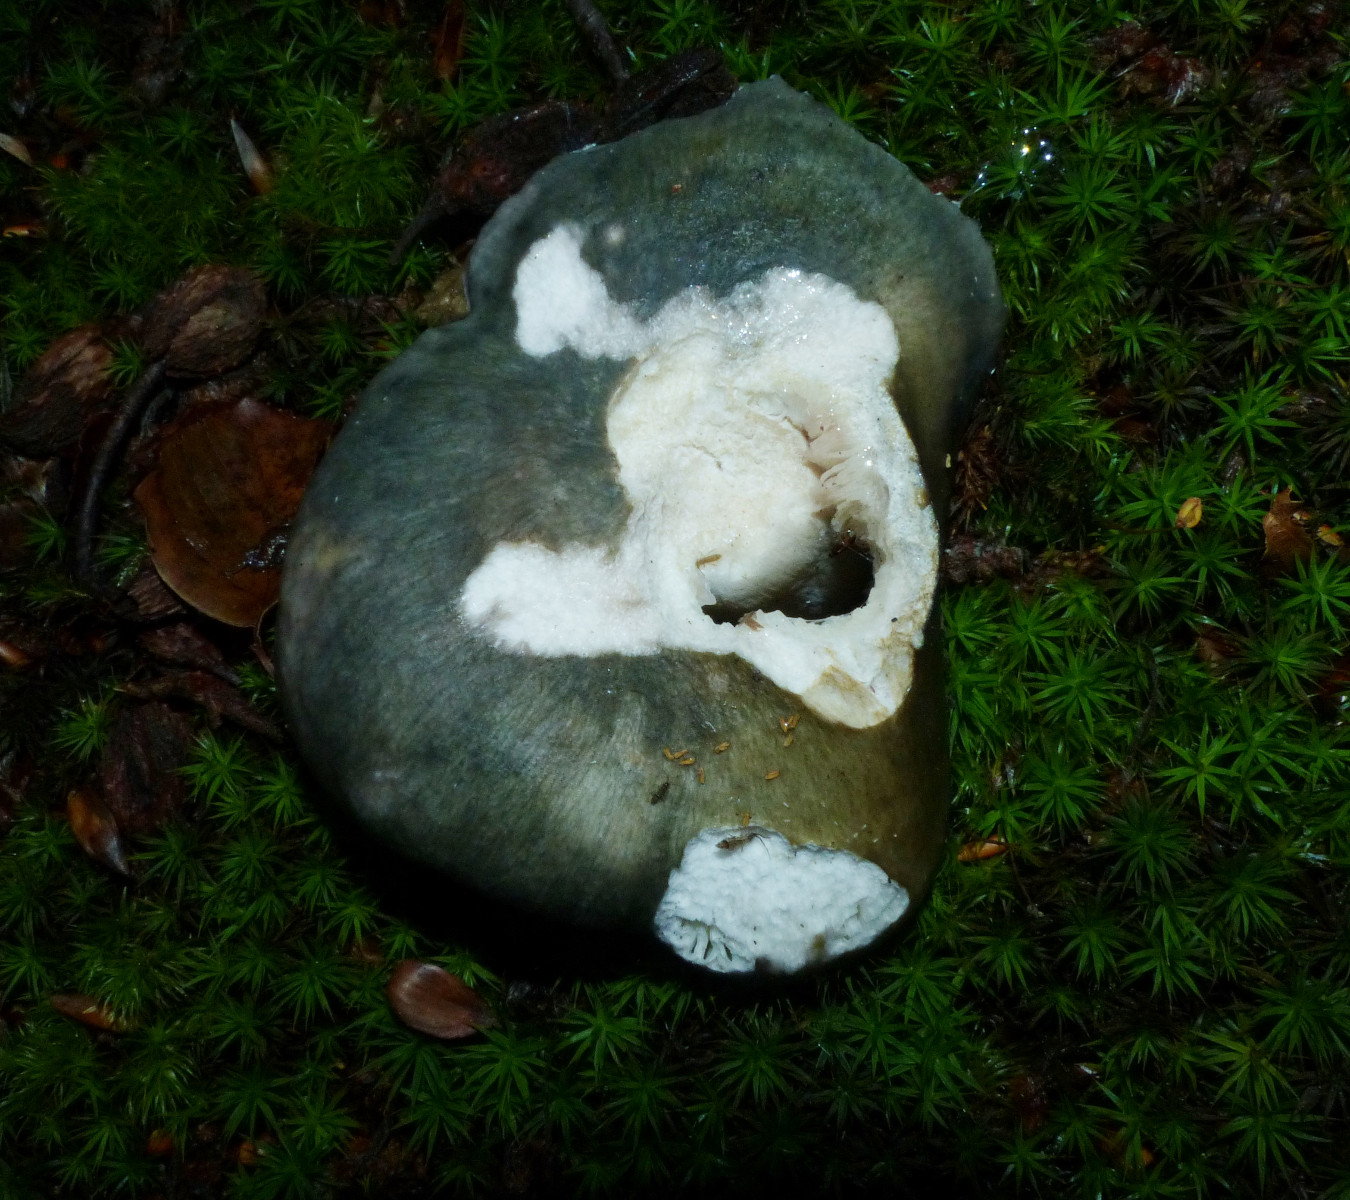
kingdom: Fungi
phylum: Basidiomycota
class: Agaricomycetes
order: Russulales
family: Russulaceae
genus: Russula
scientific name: Russula cyanoxantha
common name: broget skørhat
